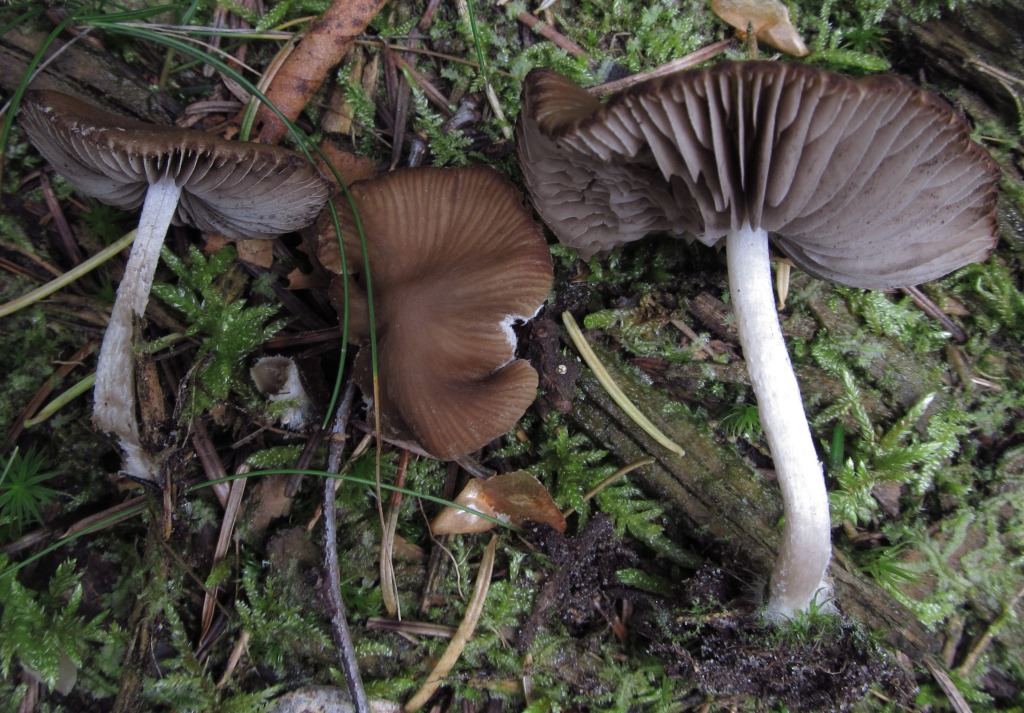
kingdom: Fungi
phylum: Basidiomycota
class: Agaricomycetes
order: Agaricales
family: Psathyrellaceae
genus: Psathyrella
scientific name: Psathyrella fibrillosa
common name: almindelig mørkhat
